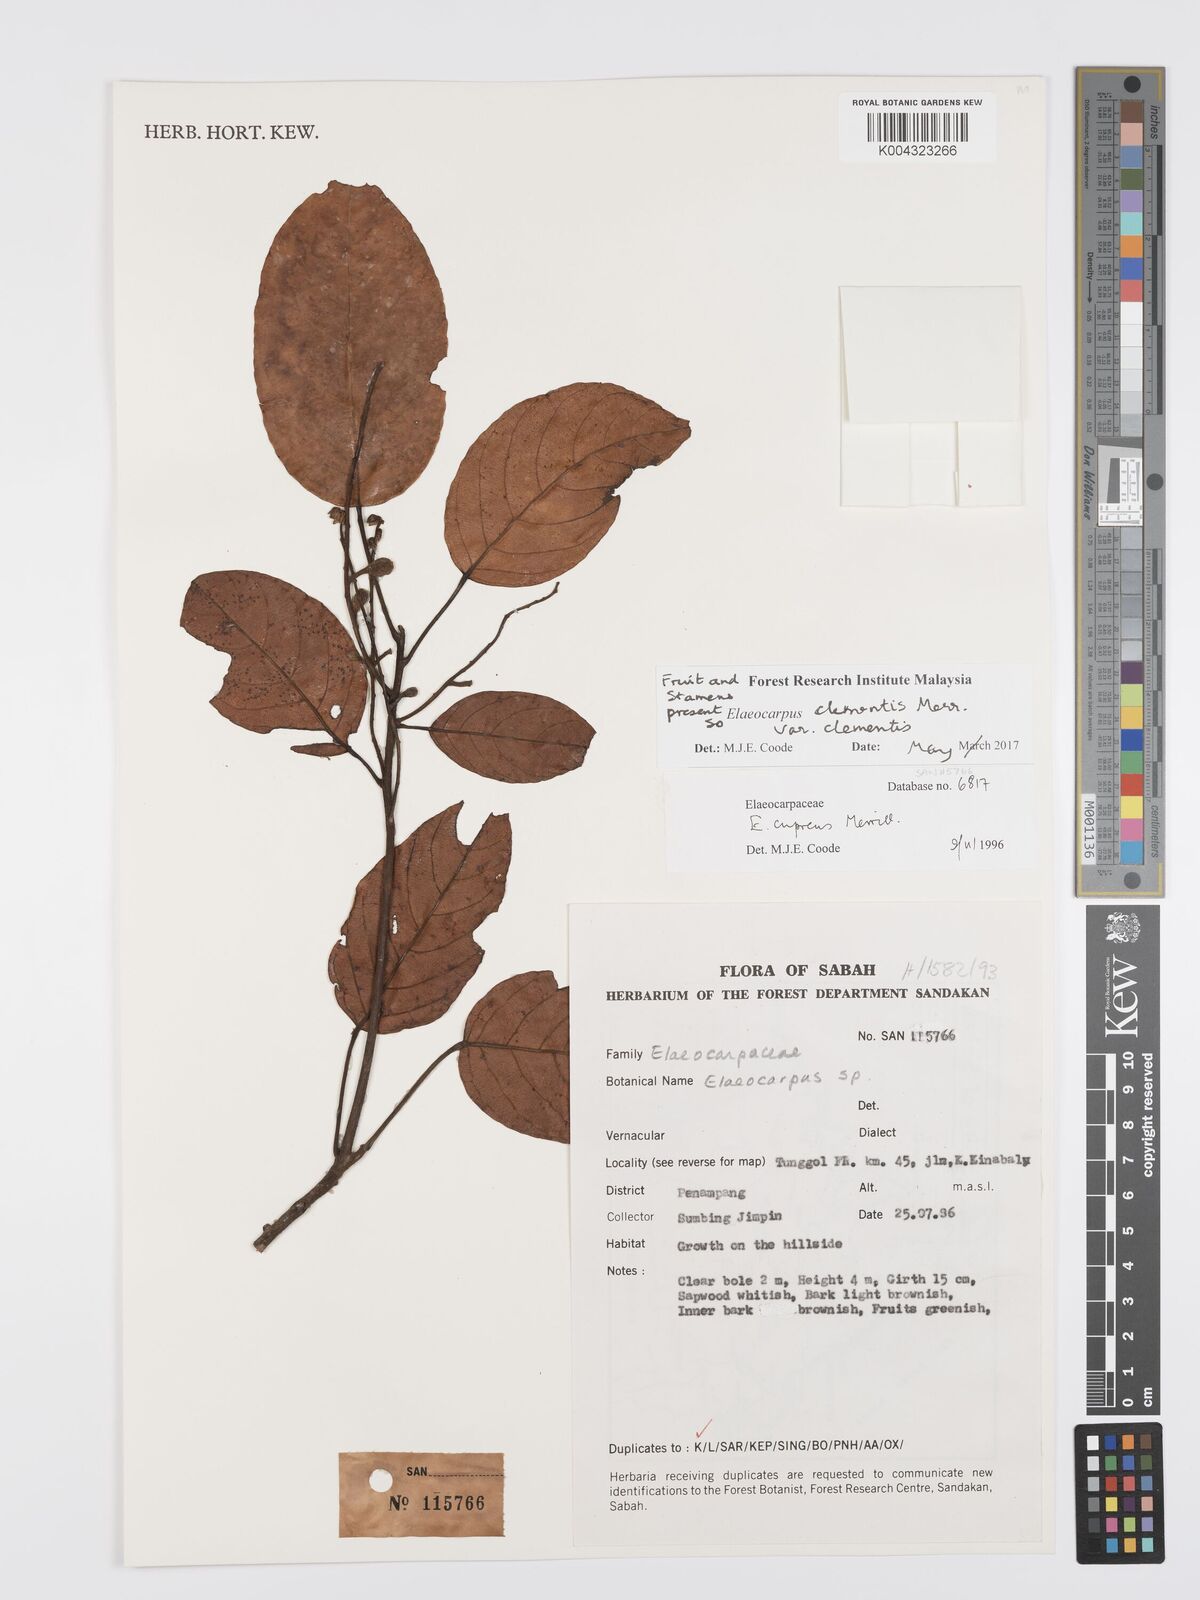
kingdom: Plantae
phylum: Tracheophyta
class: Magnoliopsida
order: Oxalidales
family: Elaeocarpaceae
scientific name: Elaeocarpaceae
